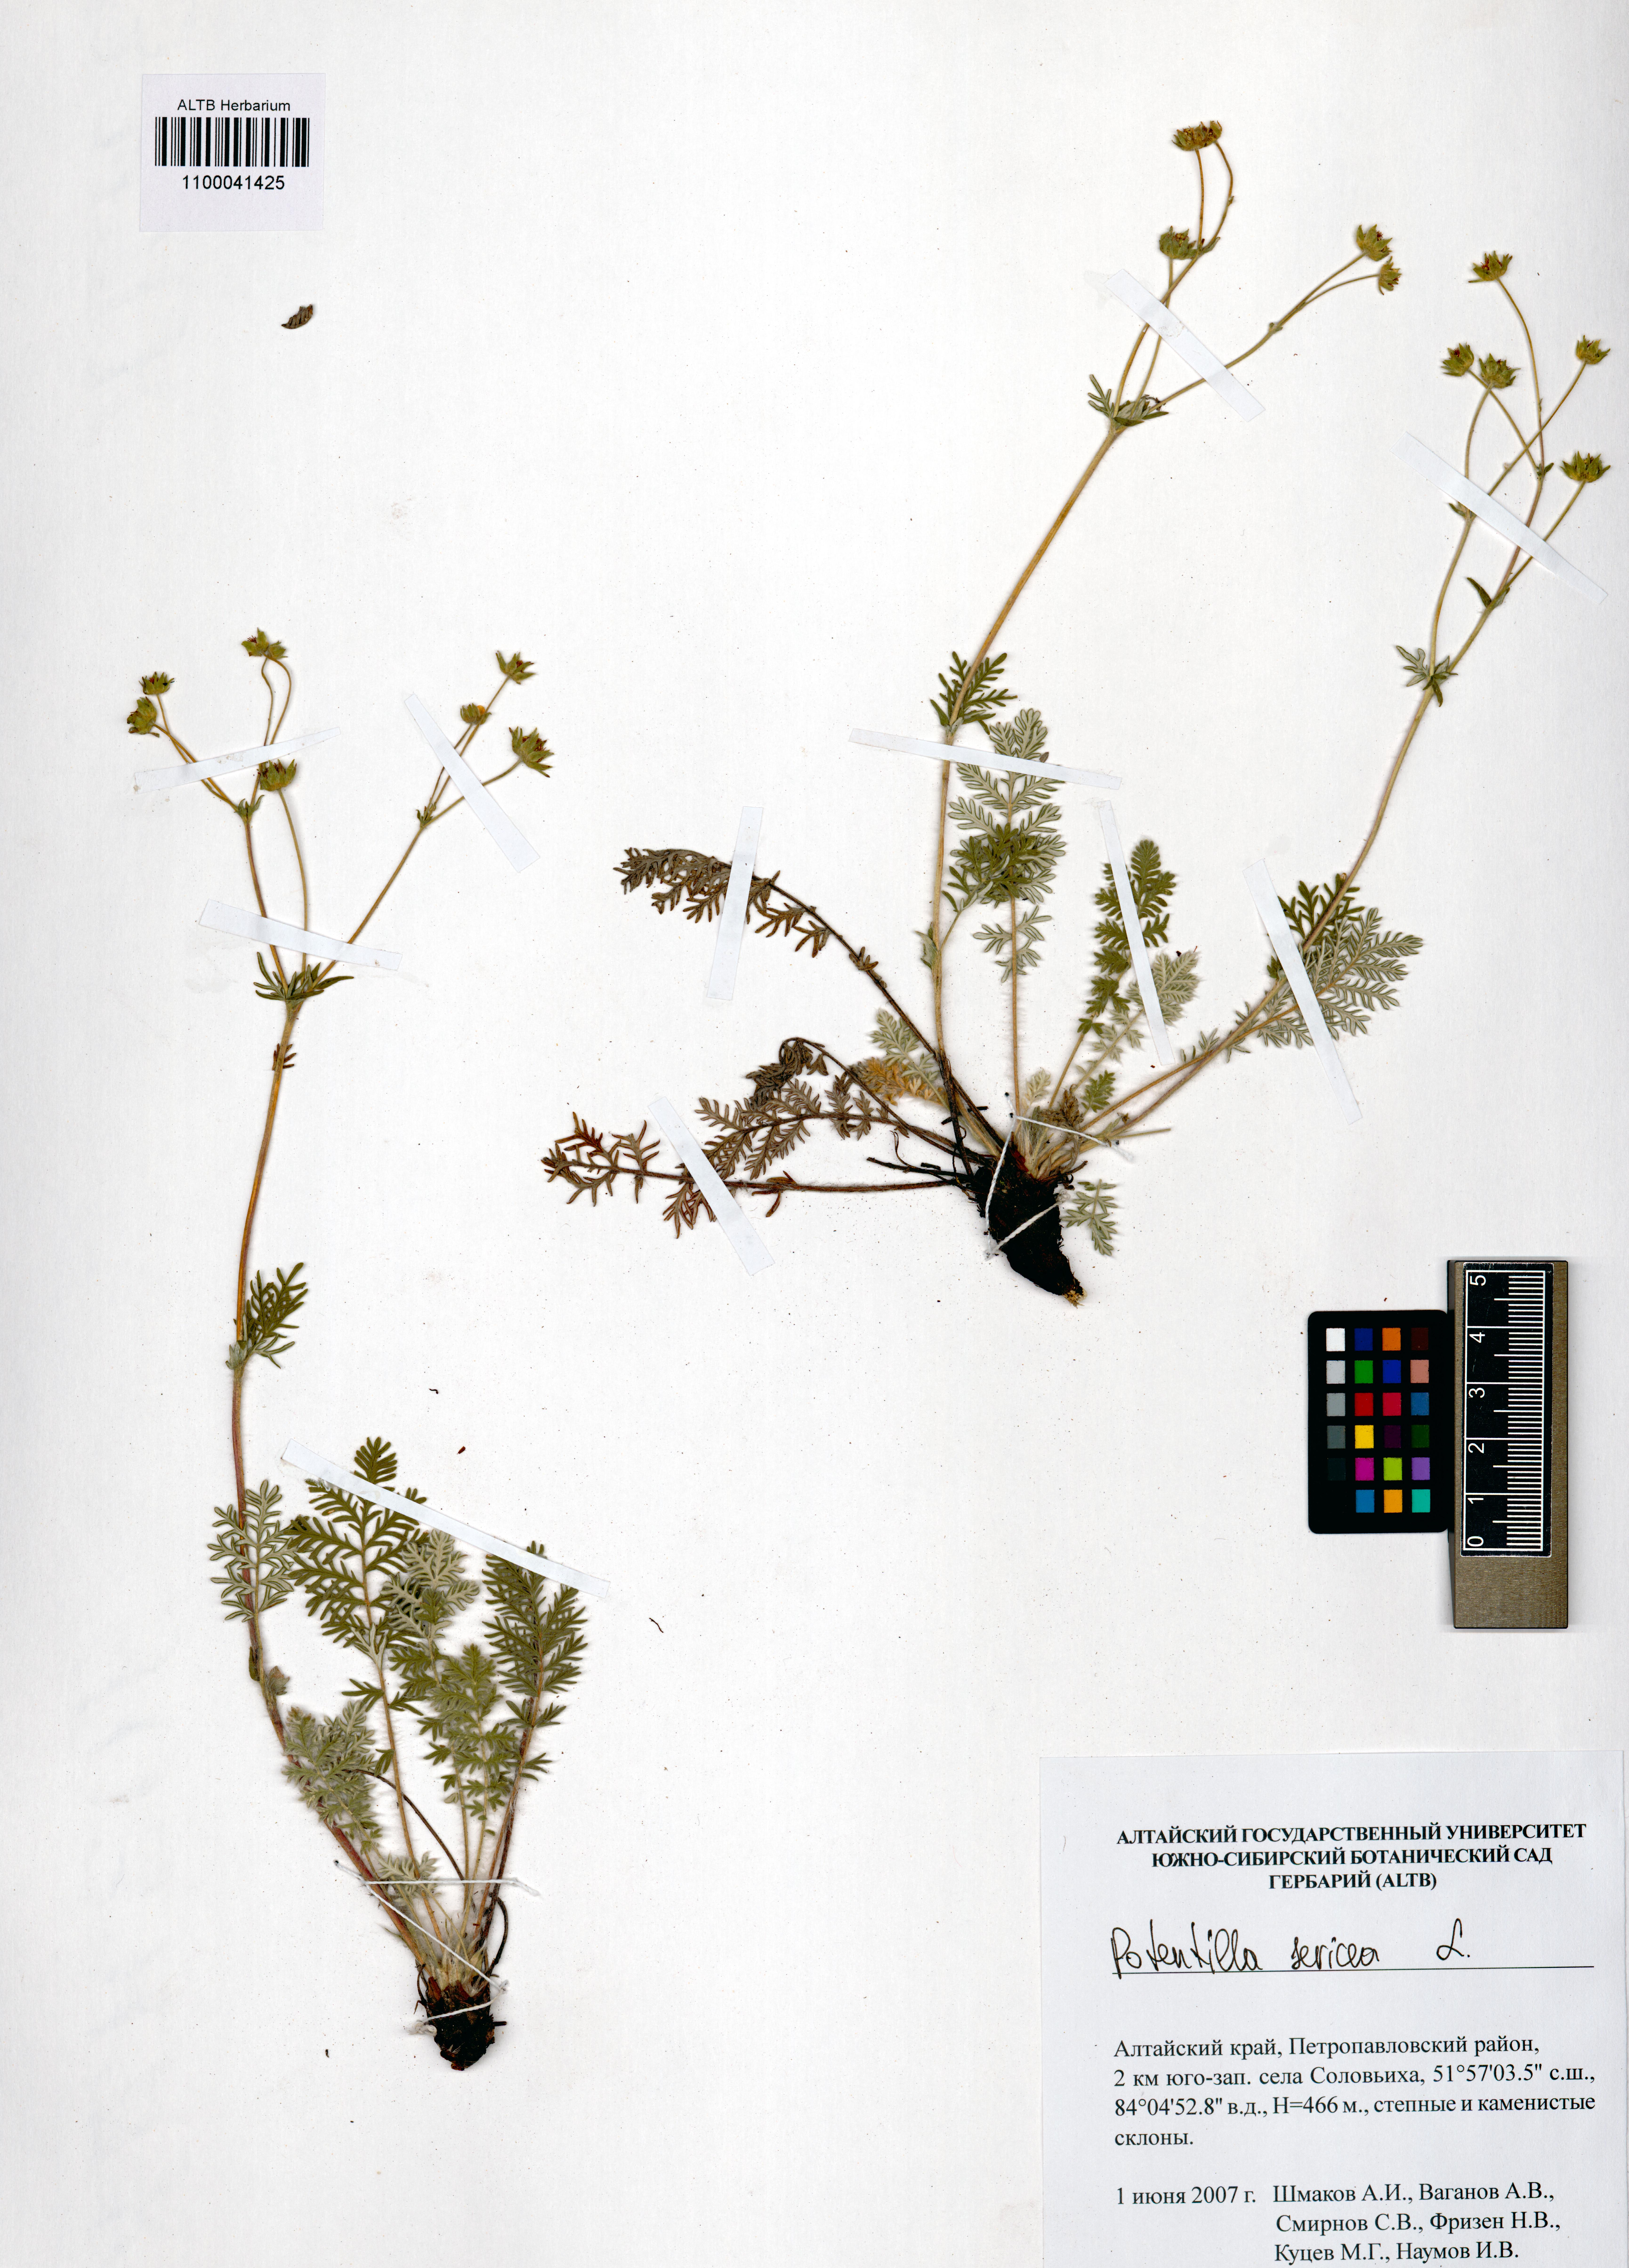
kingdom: Plantae
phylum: Tracheophyta
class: Magnoliopsida
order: Rosales
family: Rosaceae
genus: Potentilla
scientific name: Potentilla sericea
